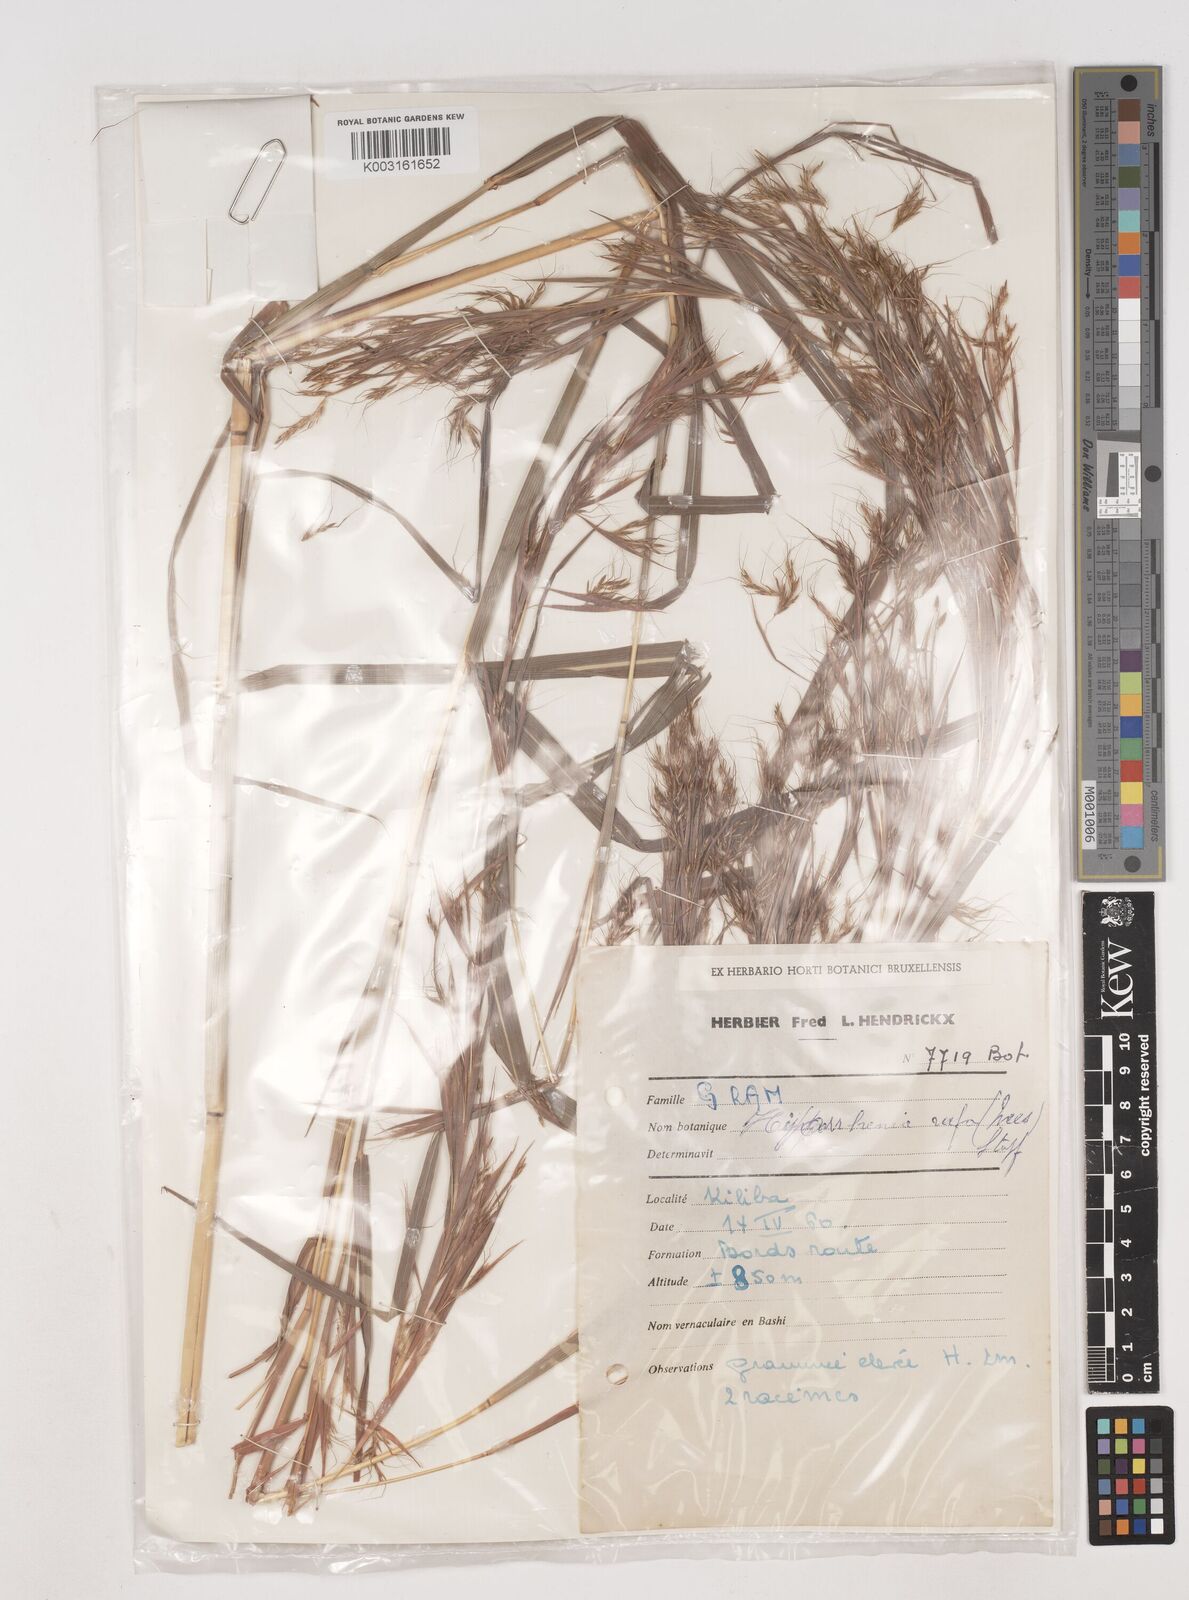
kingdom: Plantae
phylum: Tracheophyta
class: Liliopsida
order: Poales
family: Poaceae
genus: Hyparrhenia
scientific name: Hyparrhenia rufa
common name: Jaraguagrass
